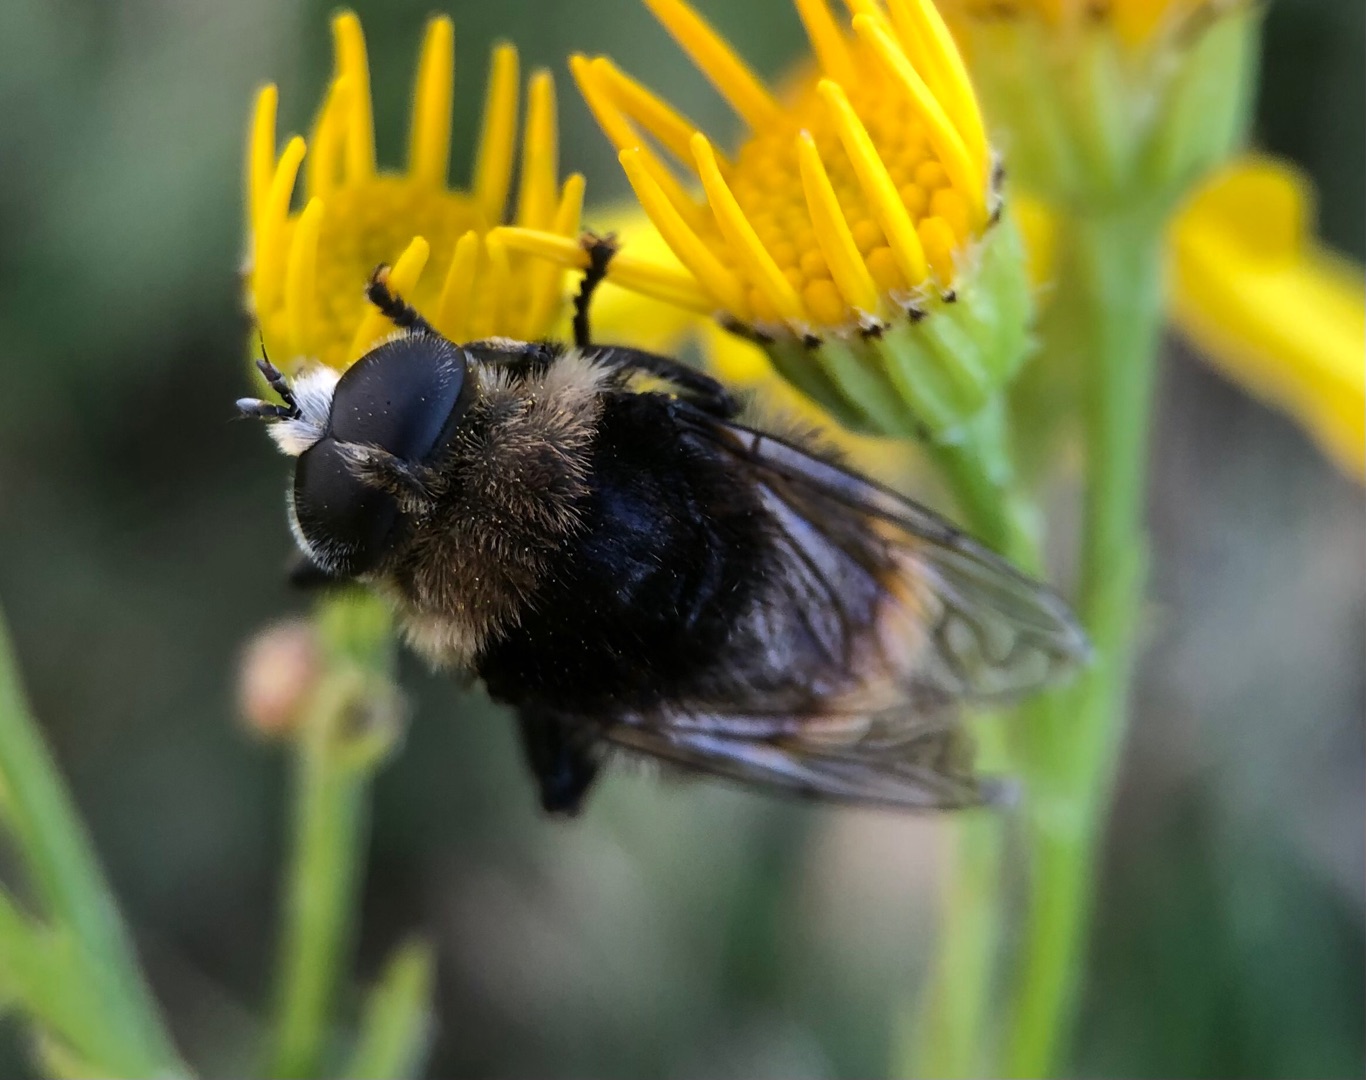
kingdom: Animalia
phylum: Arthropoda
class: Insecta
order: Diptera
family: Syrphidae
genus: Merodon
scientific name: Merodon equestris
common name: Stor narcisflue
